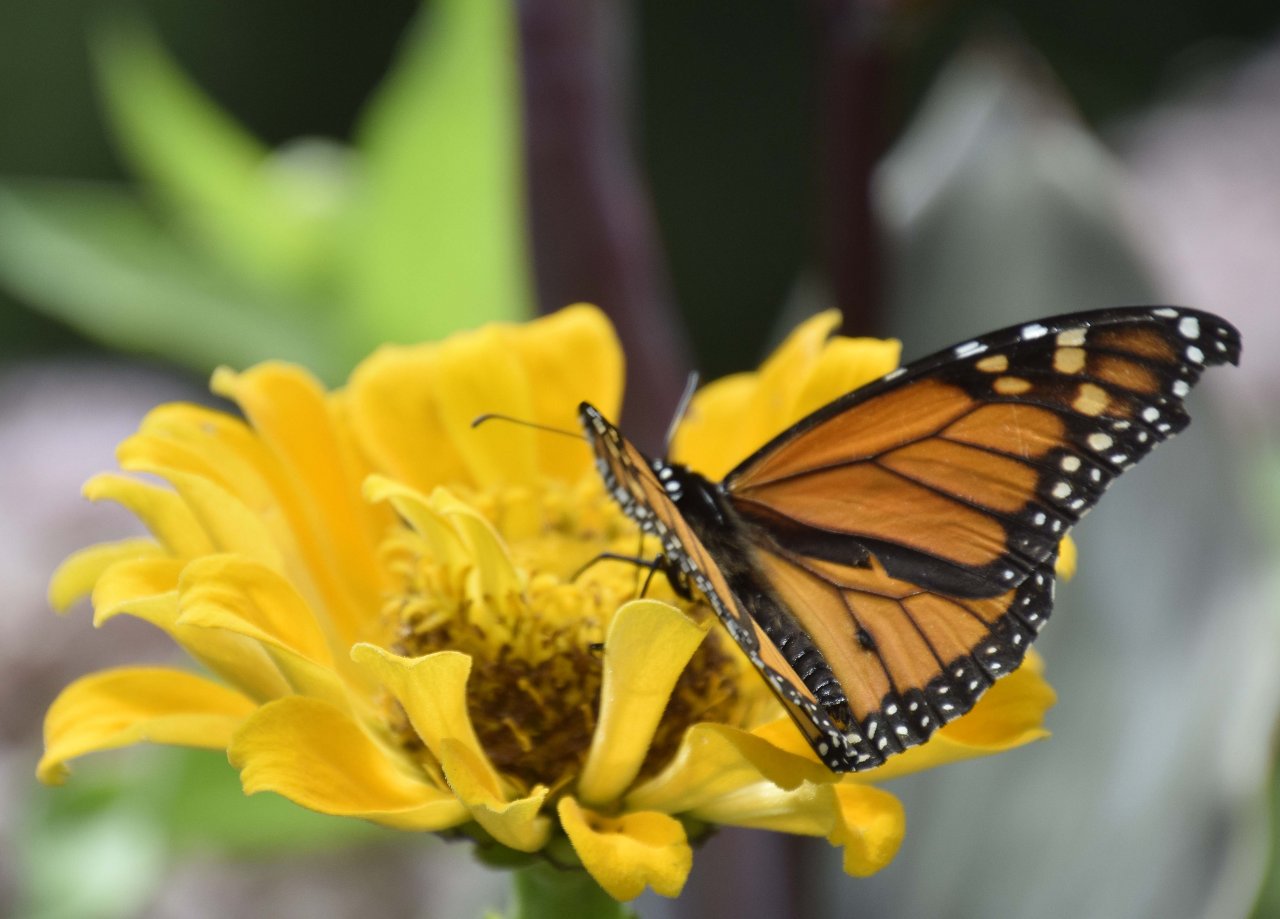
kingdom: Animalia
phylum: Arthropoda
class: Insecta
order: Lepidoptera
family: Nymphalidae
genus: Danaus
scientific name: Danaus plexippus
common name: Monarch
